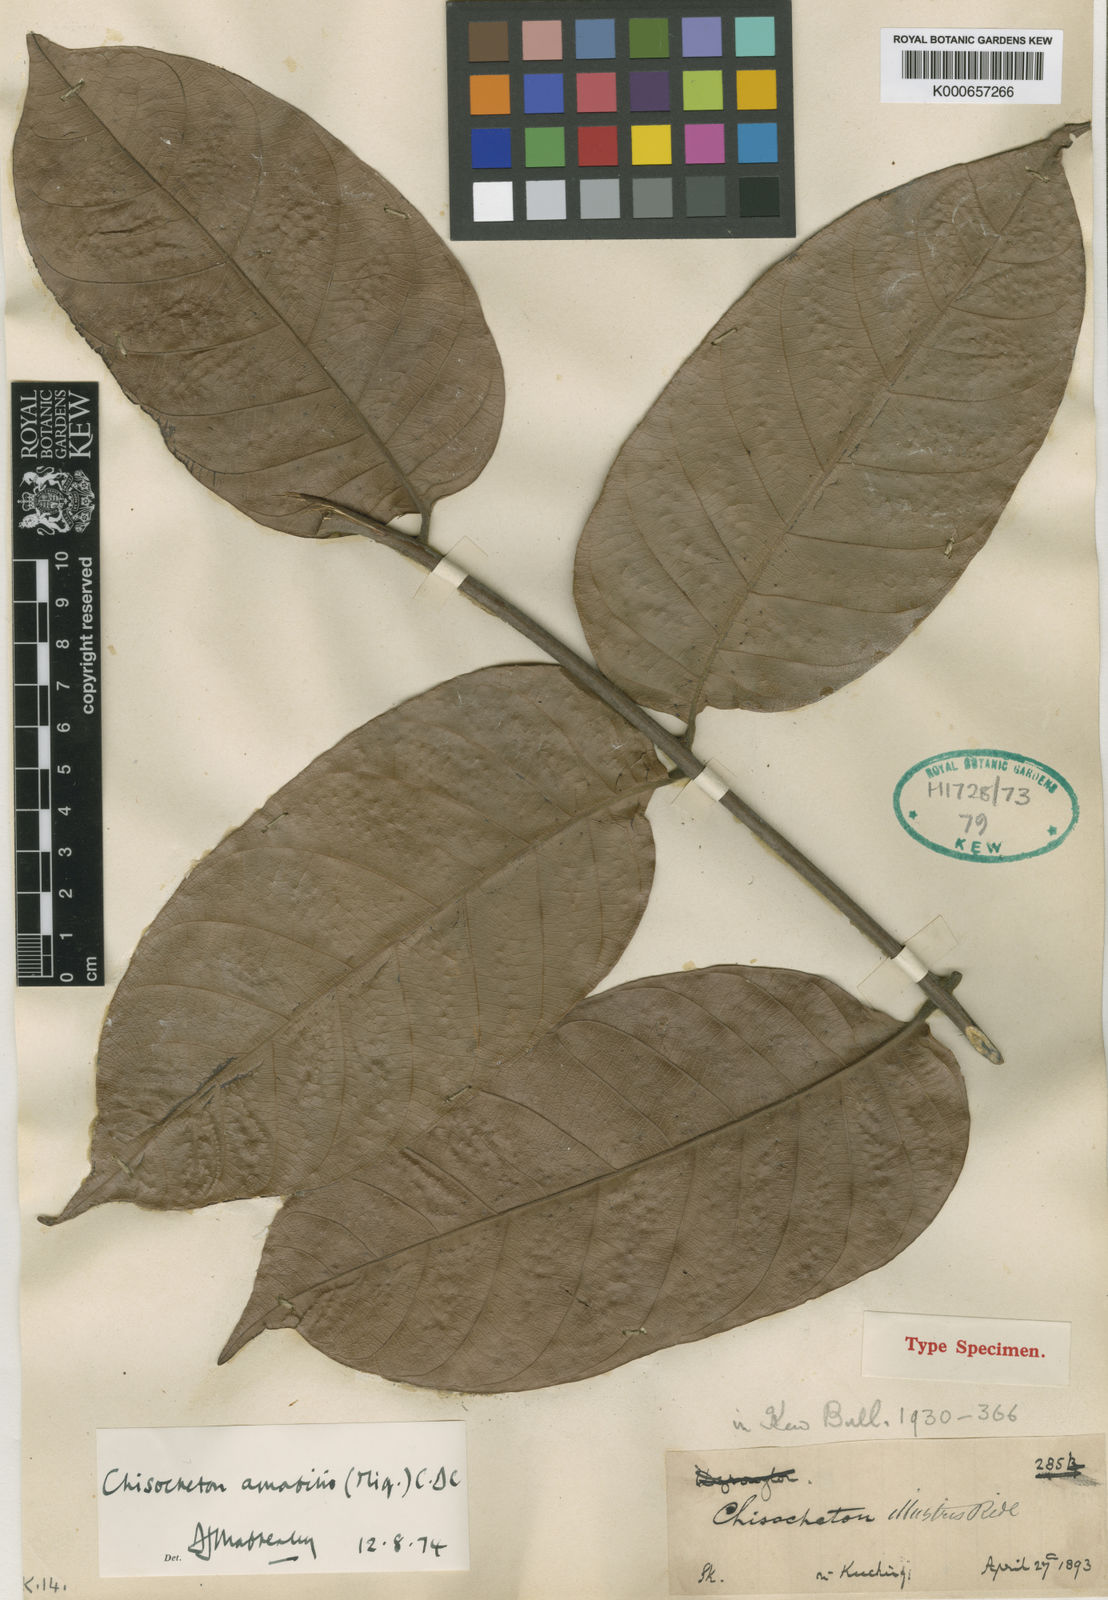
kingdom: Plantae
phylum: Tracheophyta
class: Magnoliopsida
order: Sapindales
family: Meliaceae
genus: Chisocheton
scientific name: Chisocheton amabilis
